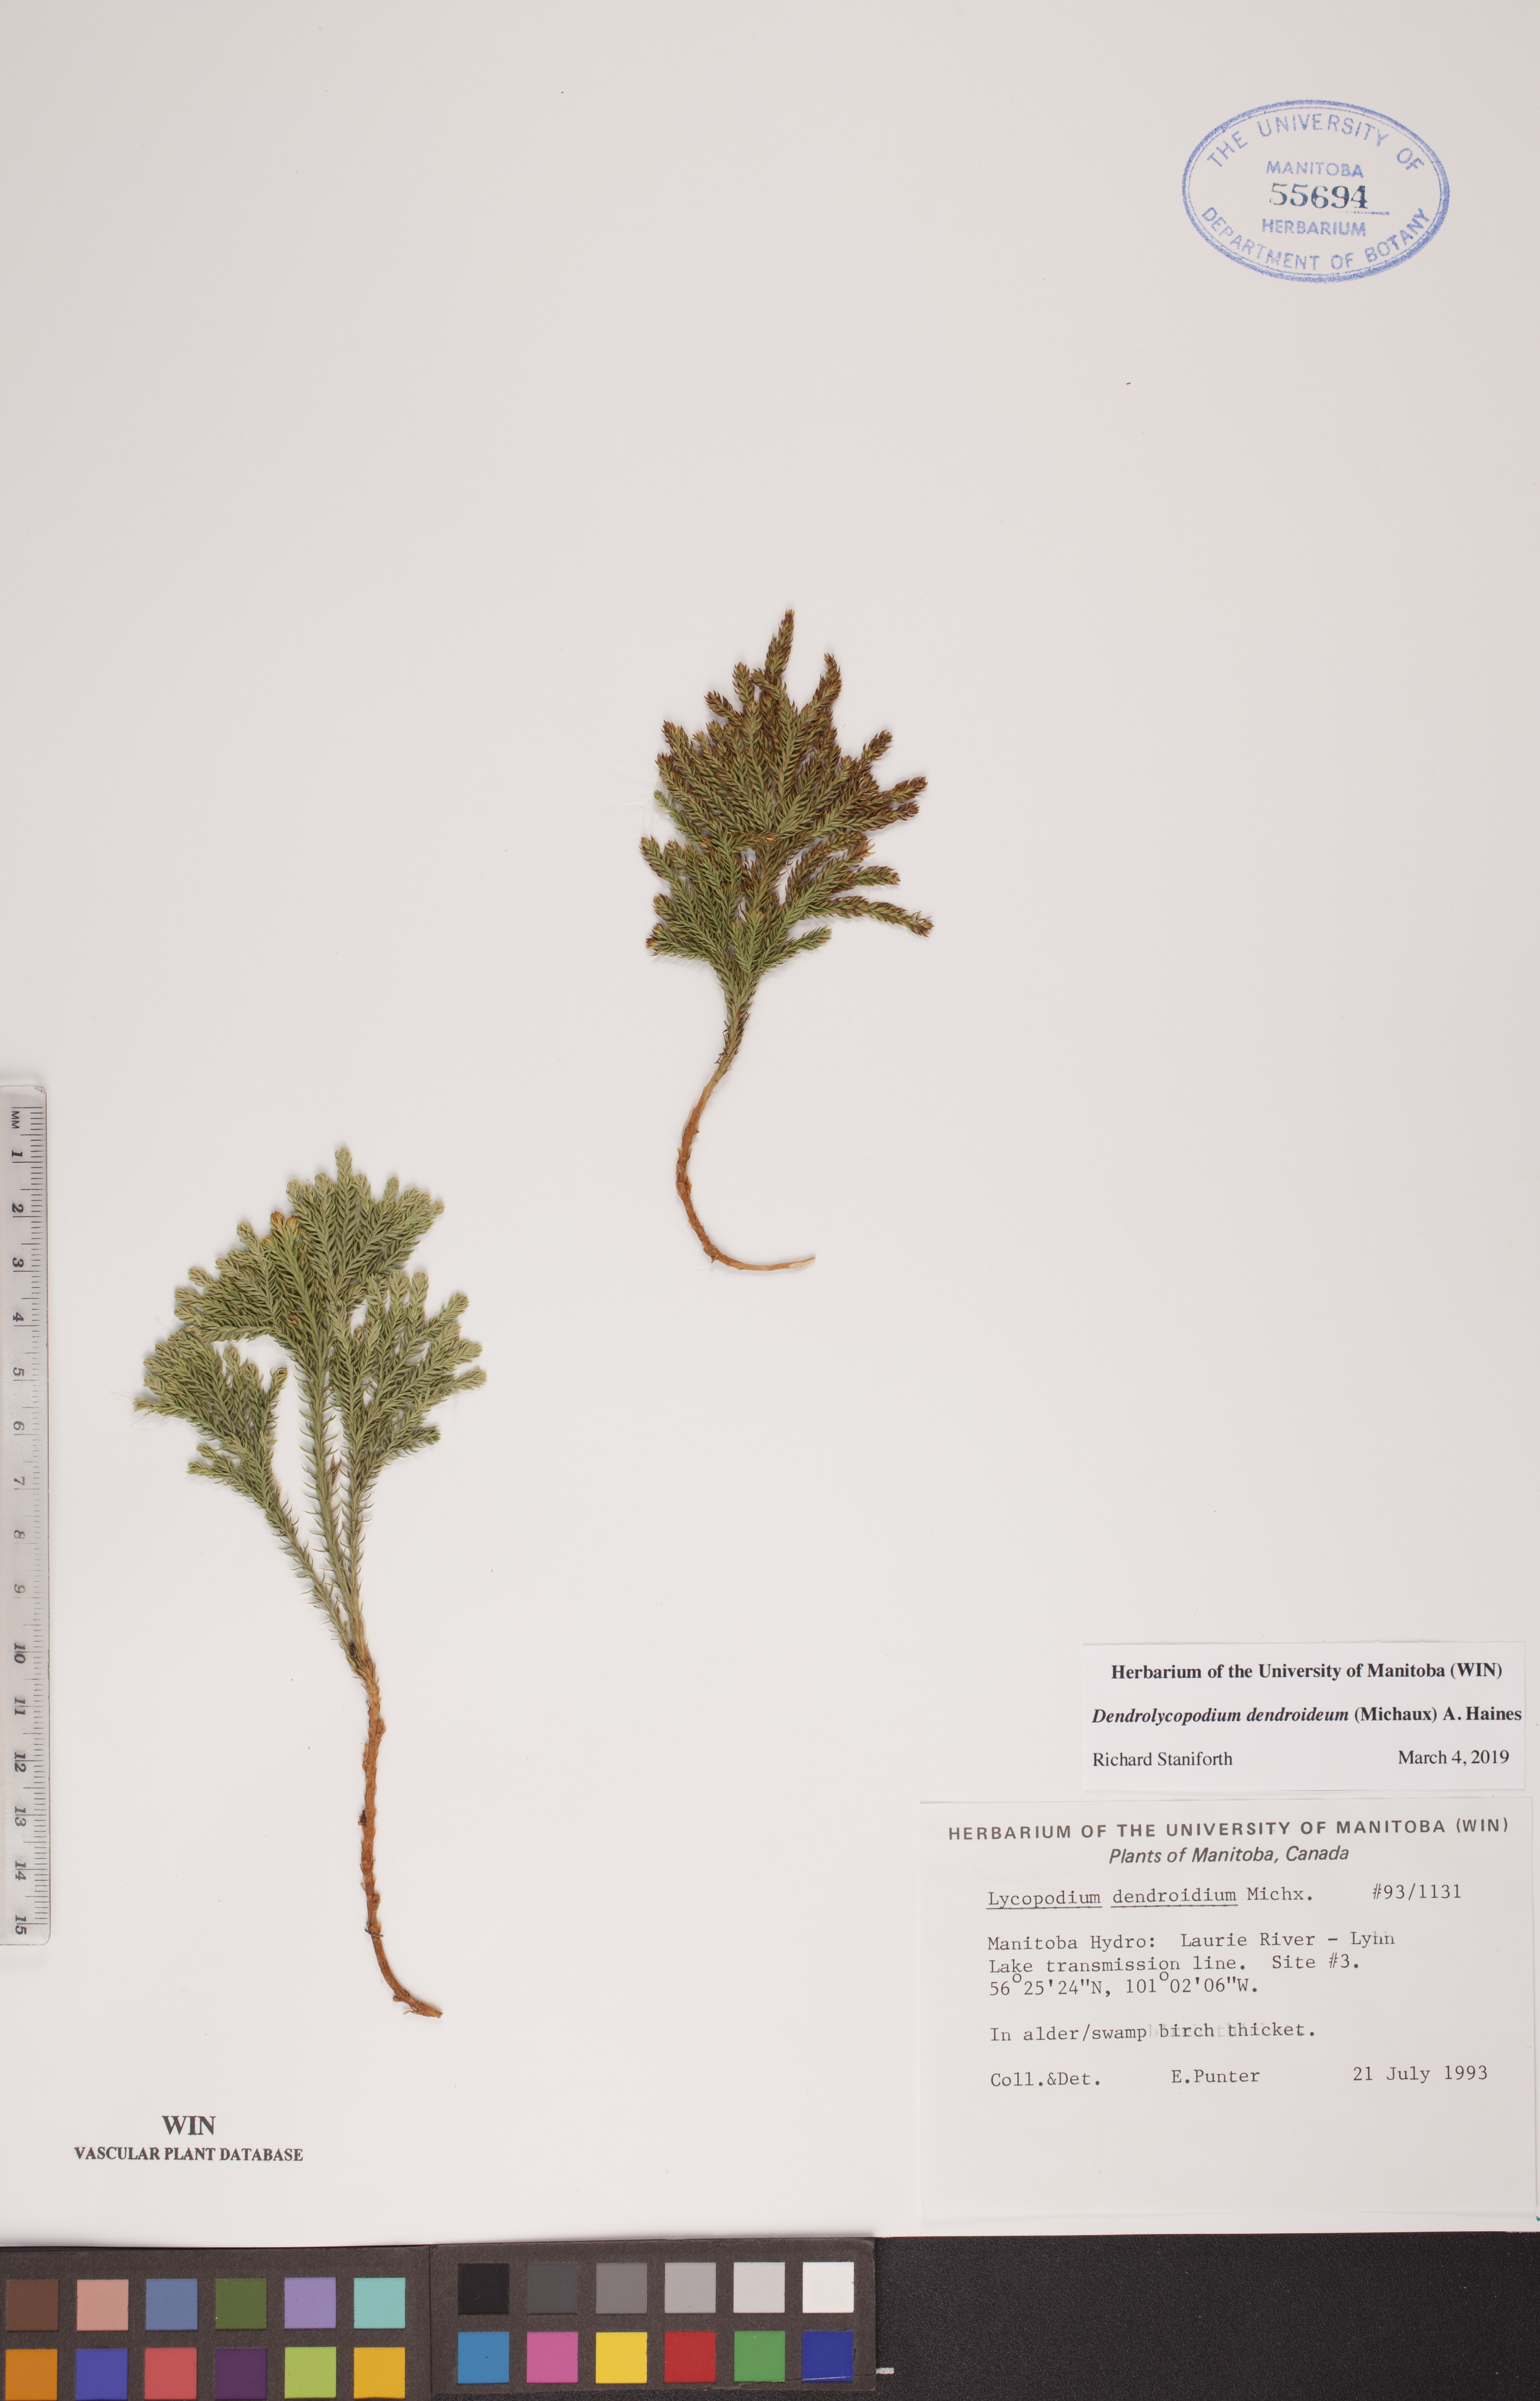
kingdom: Plantae
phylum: Tracheophyta
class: Lycopodiopsida
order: Lycopodiales
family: Lycopodiaceae
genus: Dendrolycopodium
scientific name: Dendrolycopodium dendroideum
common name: Northern tree-clubmoss
